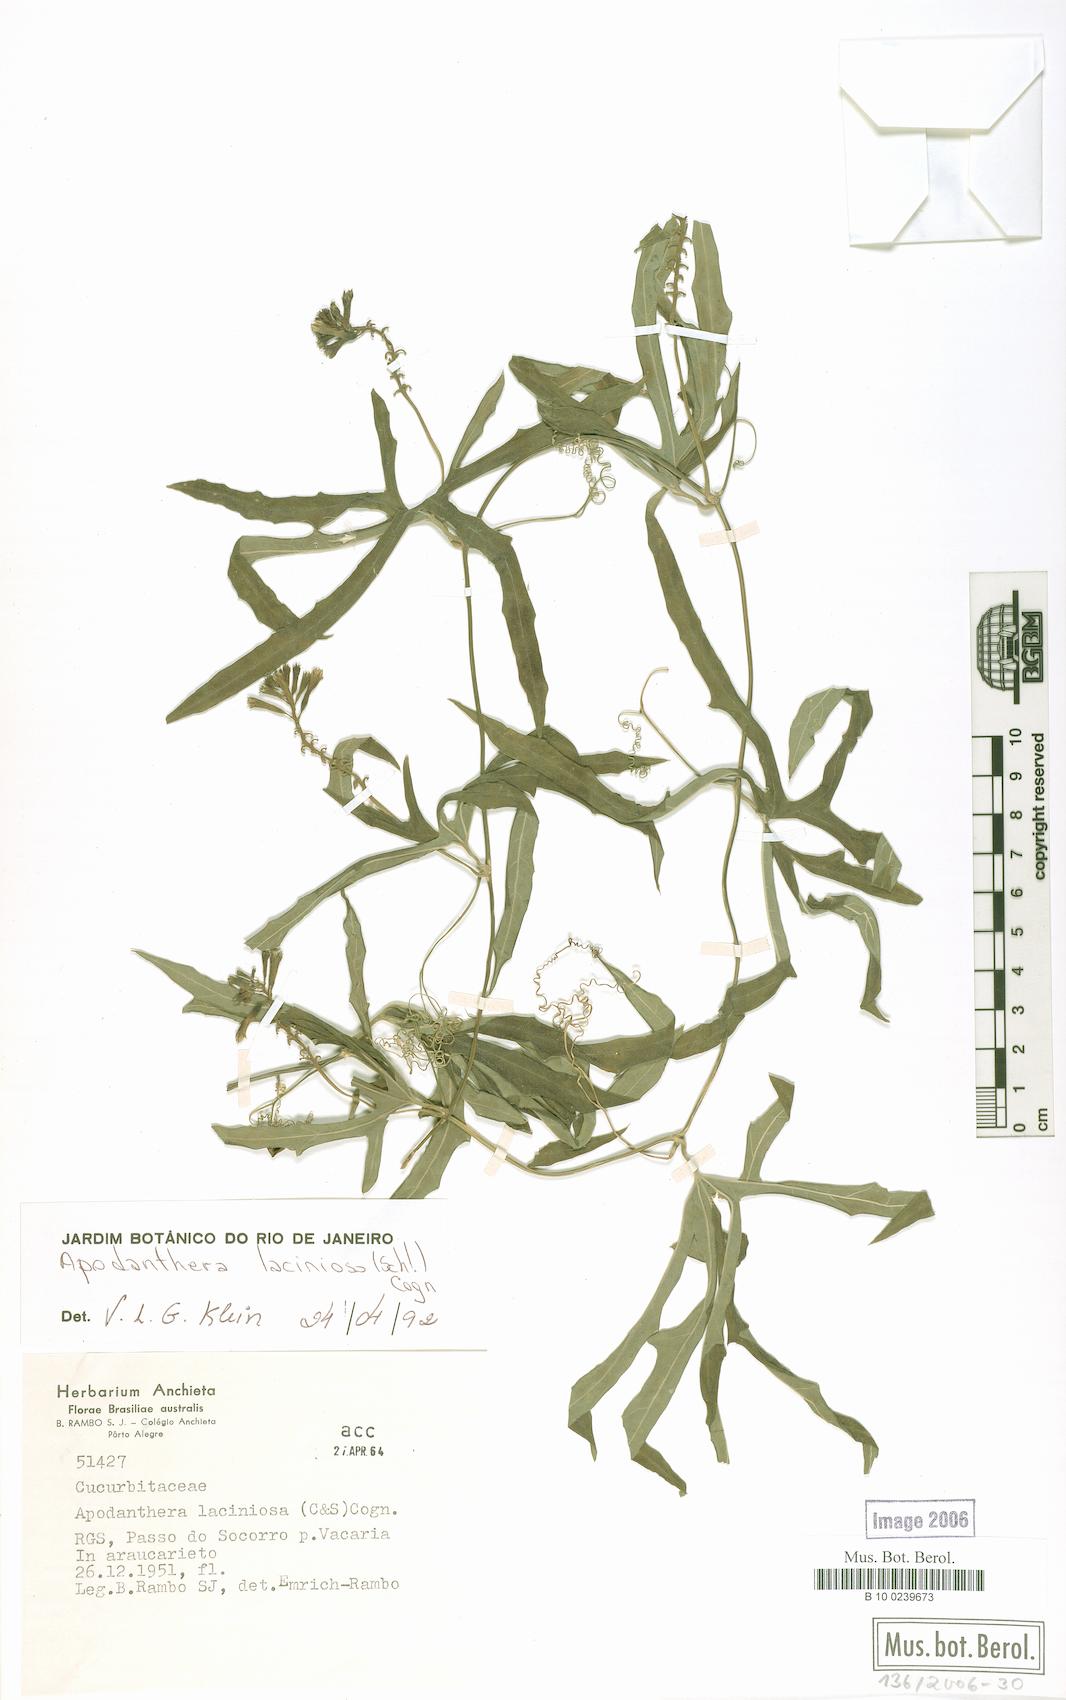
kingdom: Plantae
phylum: Tracheophyta
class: Magnoliopsida
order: Cucurbitales
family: Cucurbitaceae
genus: Apodanthera
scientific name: Apodanthera laciniosa
